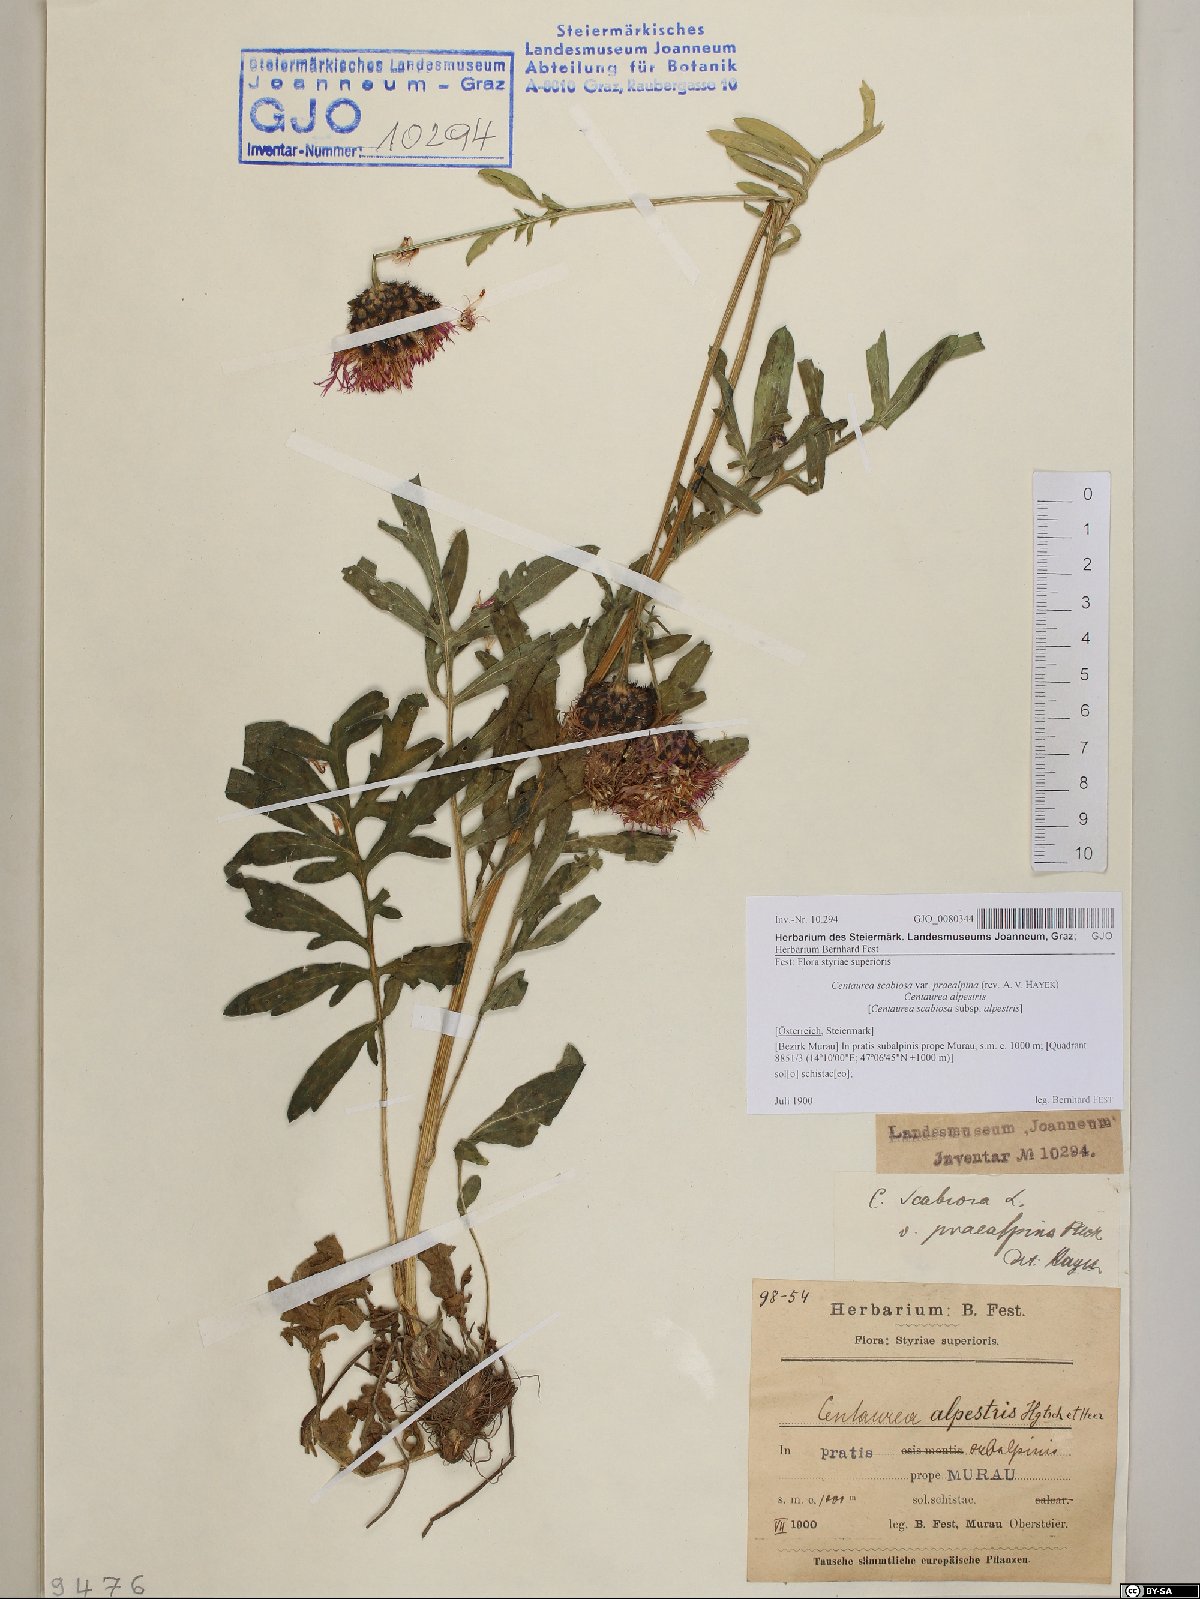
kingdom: Plantae
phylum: Tracheophyta
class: Magnoliopsida
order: Asterales
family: Asteraceae
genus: Centaurea
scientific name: Centaurea scabiosa
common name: Greater knapweed
